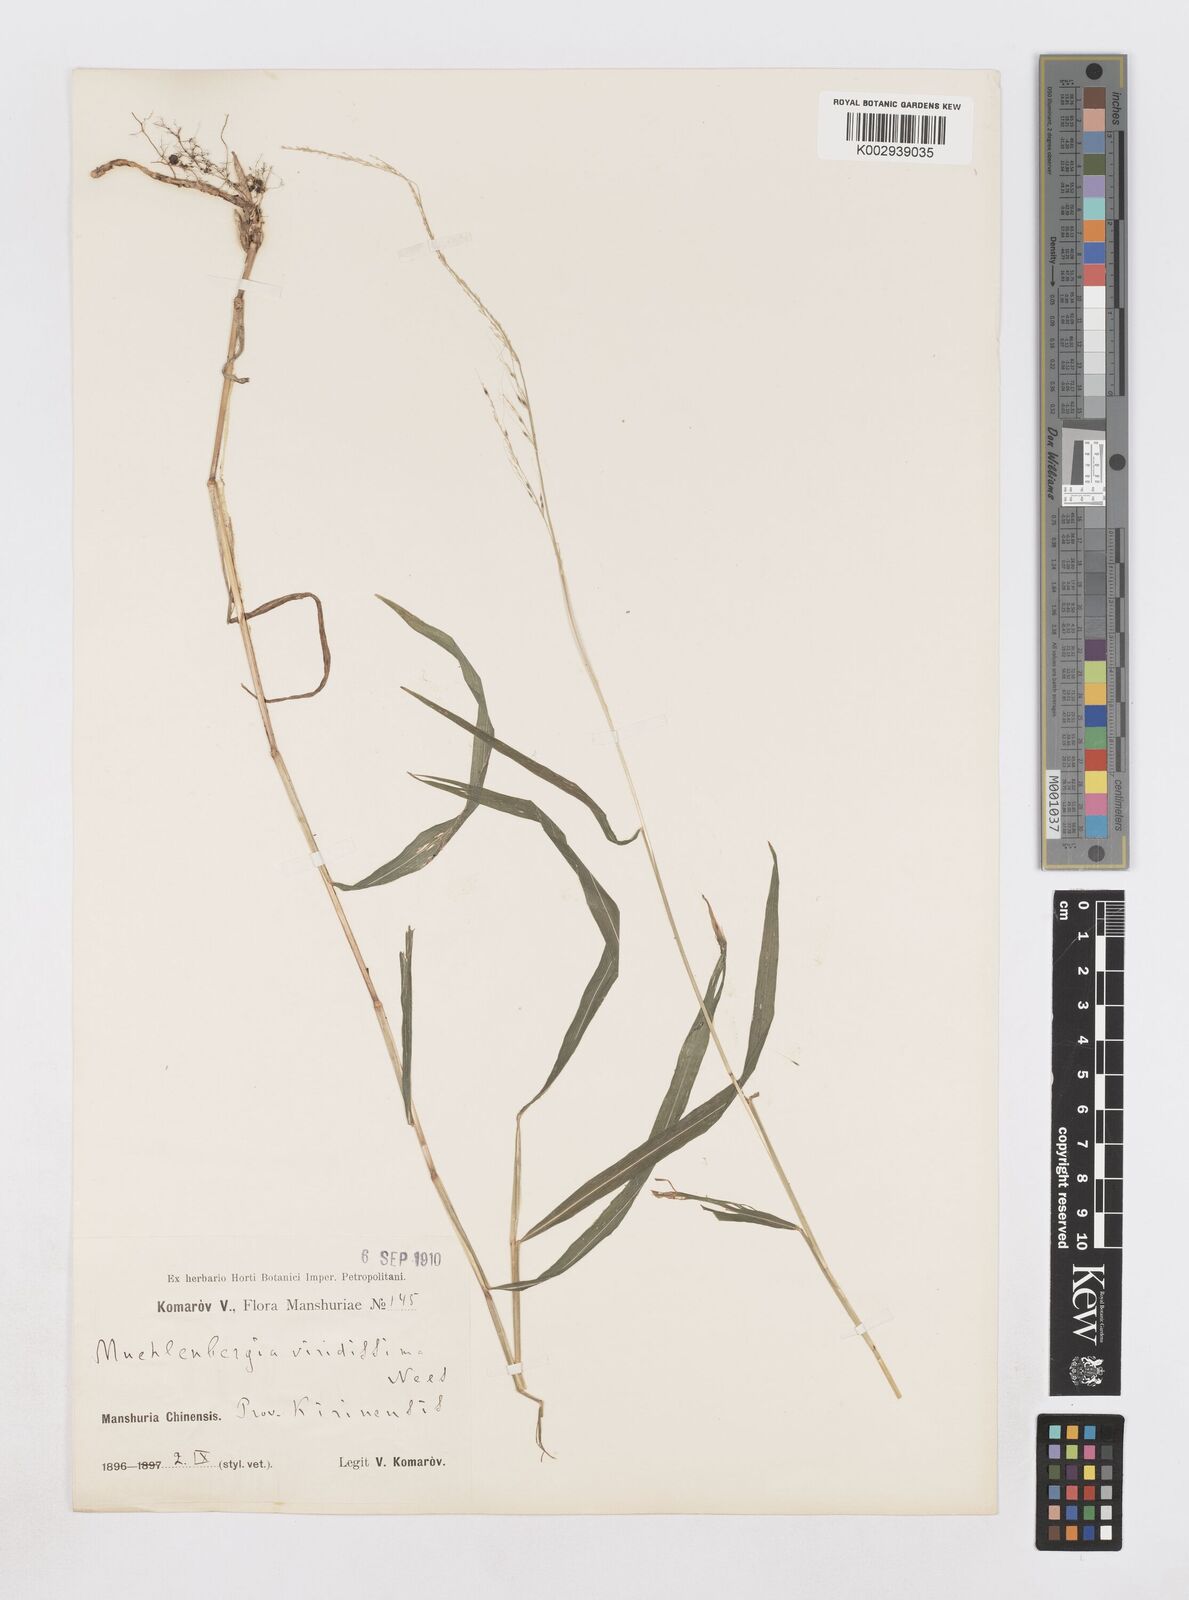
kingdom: Plantae
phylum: Tracheophyta
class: Liliopsida
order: Poales
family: Poaceae
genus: Muhlenbergia
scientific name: Muhlenbergia huegelii
